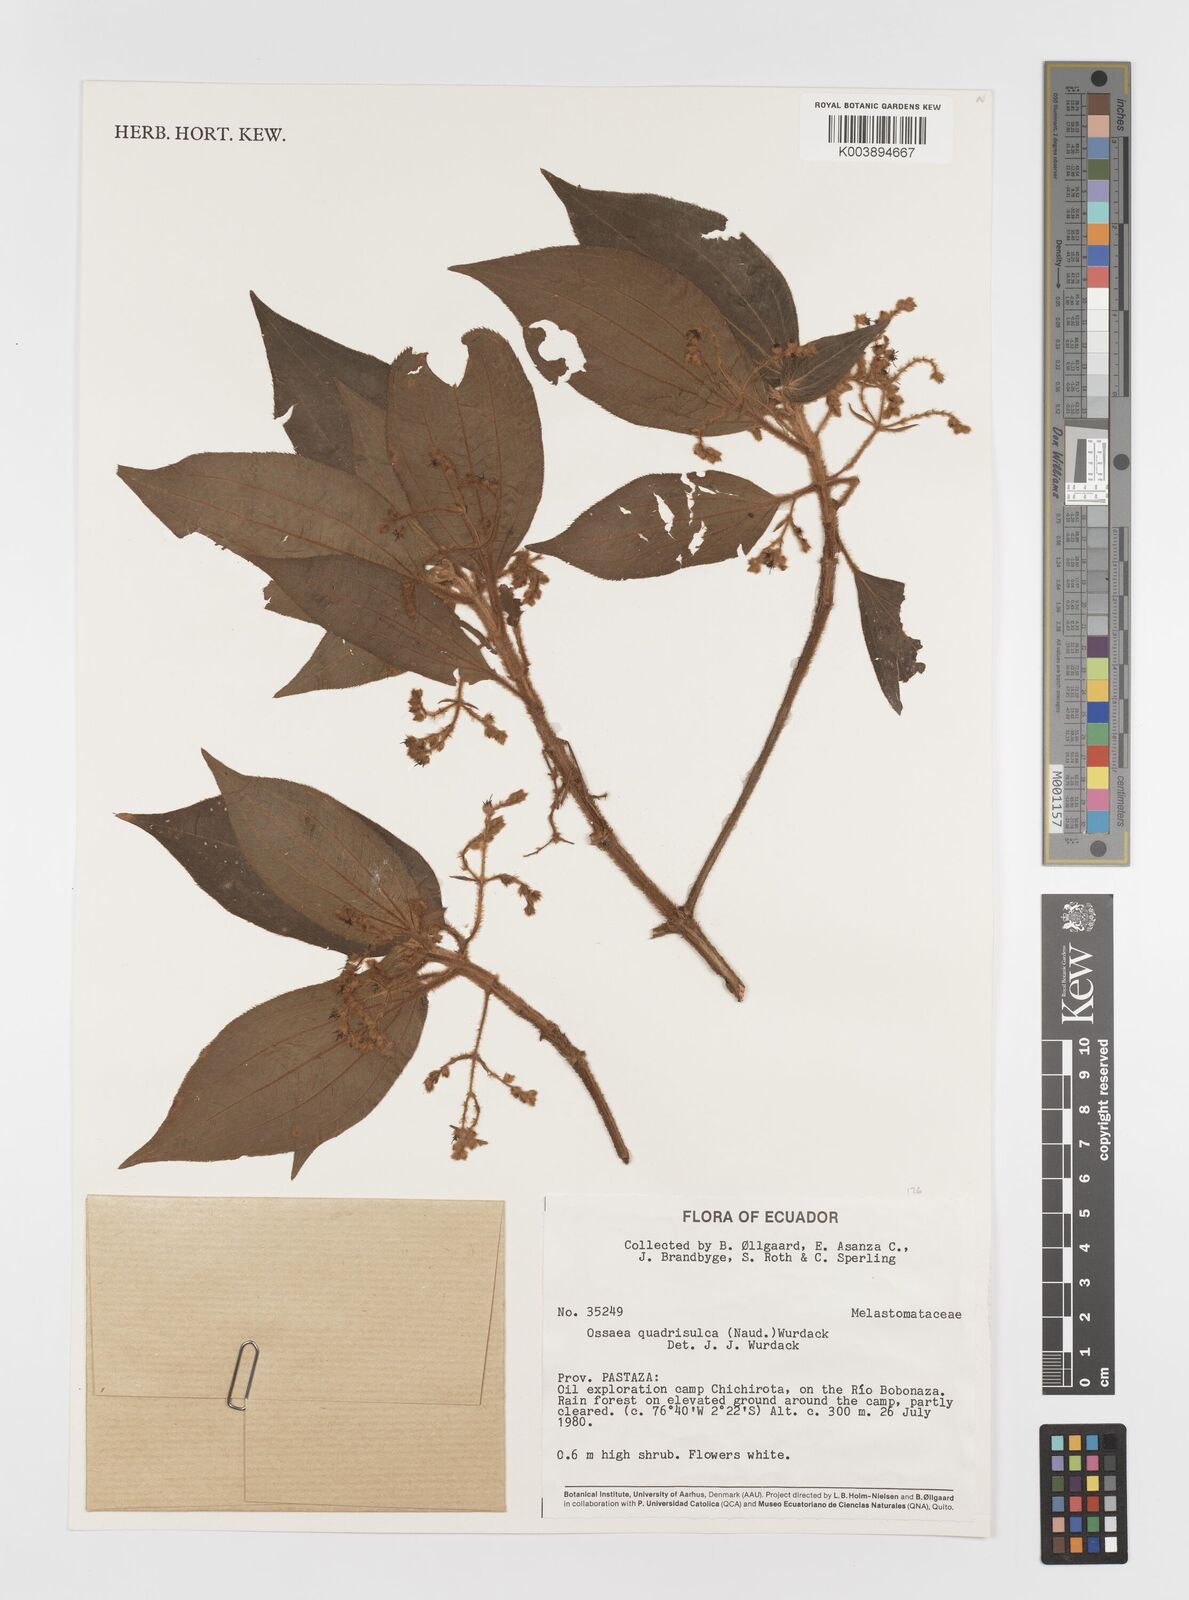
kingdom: Plantae
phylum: Tracheophyta
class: Magnoliopsida
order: Myrtales
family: Melastomataceae
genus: Miconia
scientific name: Miconia quadrisulca
